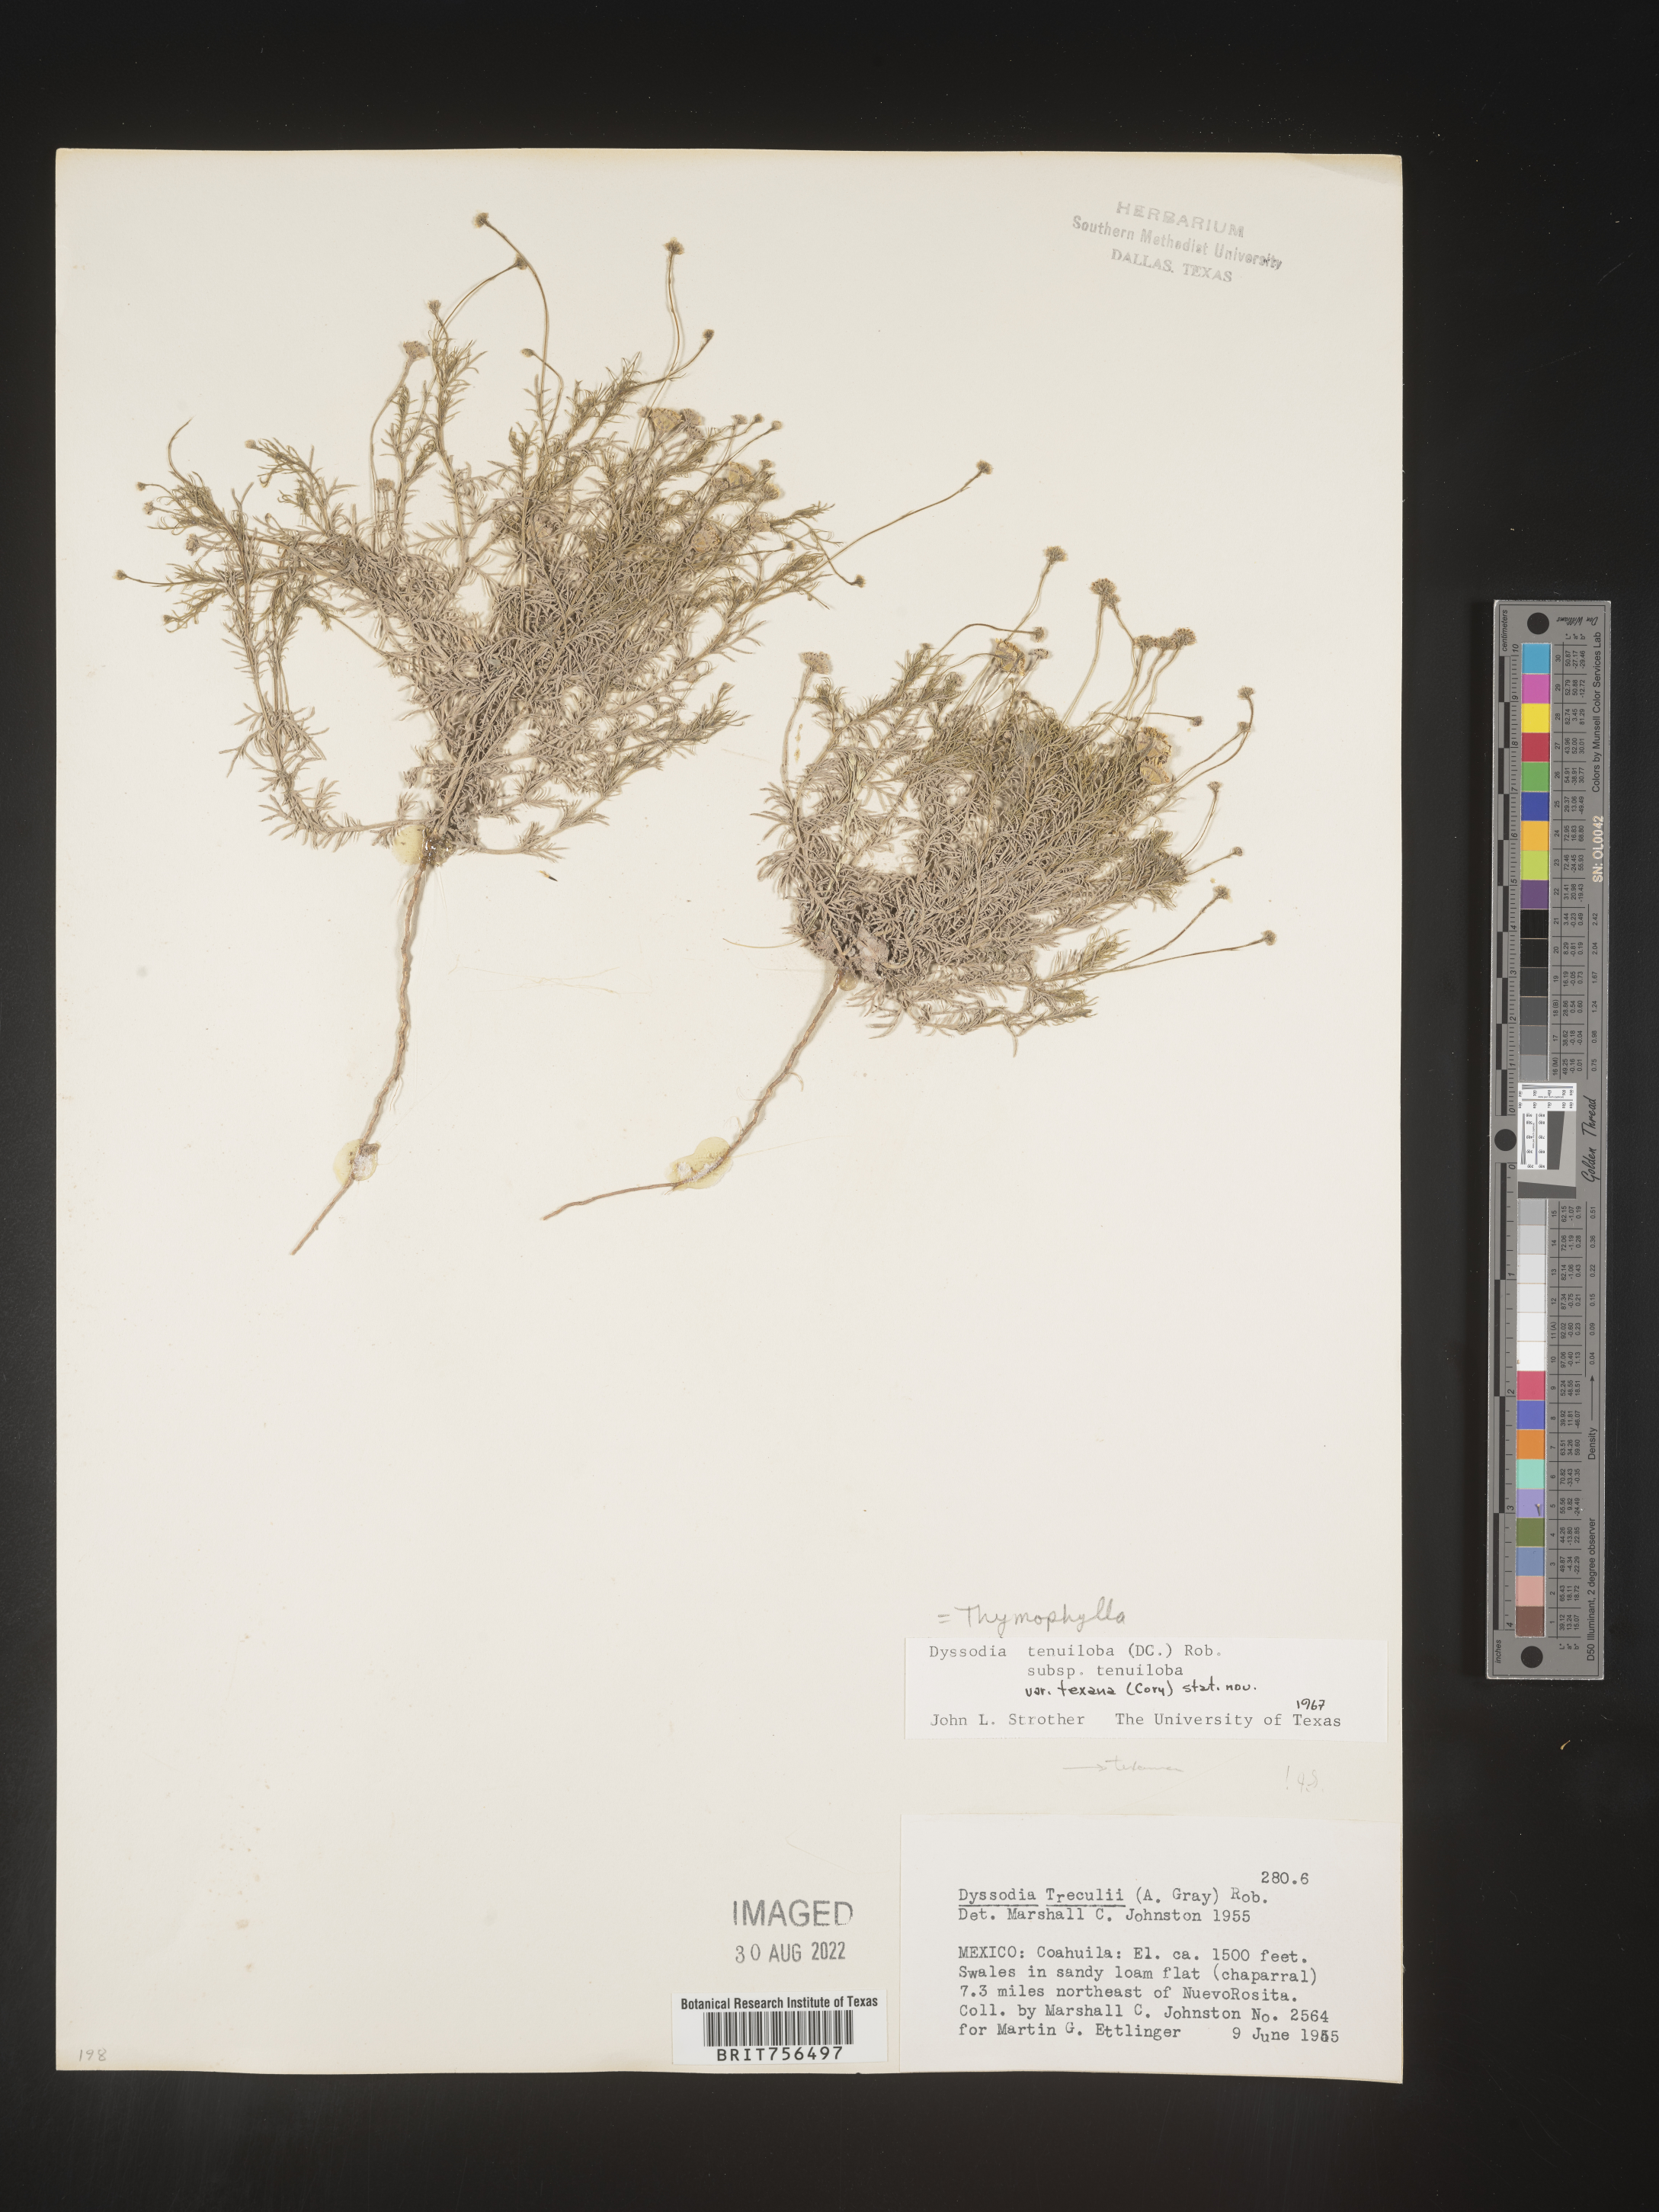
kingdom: Plantae
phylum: Tracheophyta
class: Magnoliopsida
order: Asterales
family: Asteraceae
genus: Thymophylla
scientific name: Thymophylla tenuiloba
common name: Dahlberg's daisy
